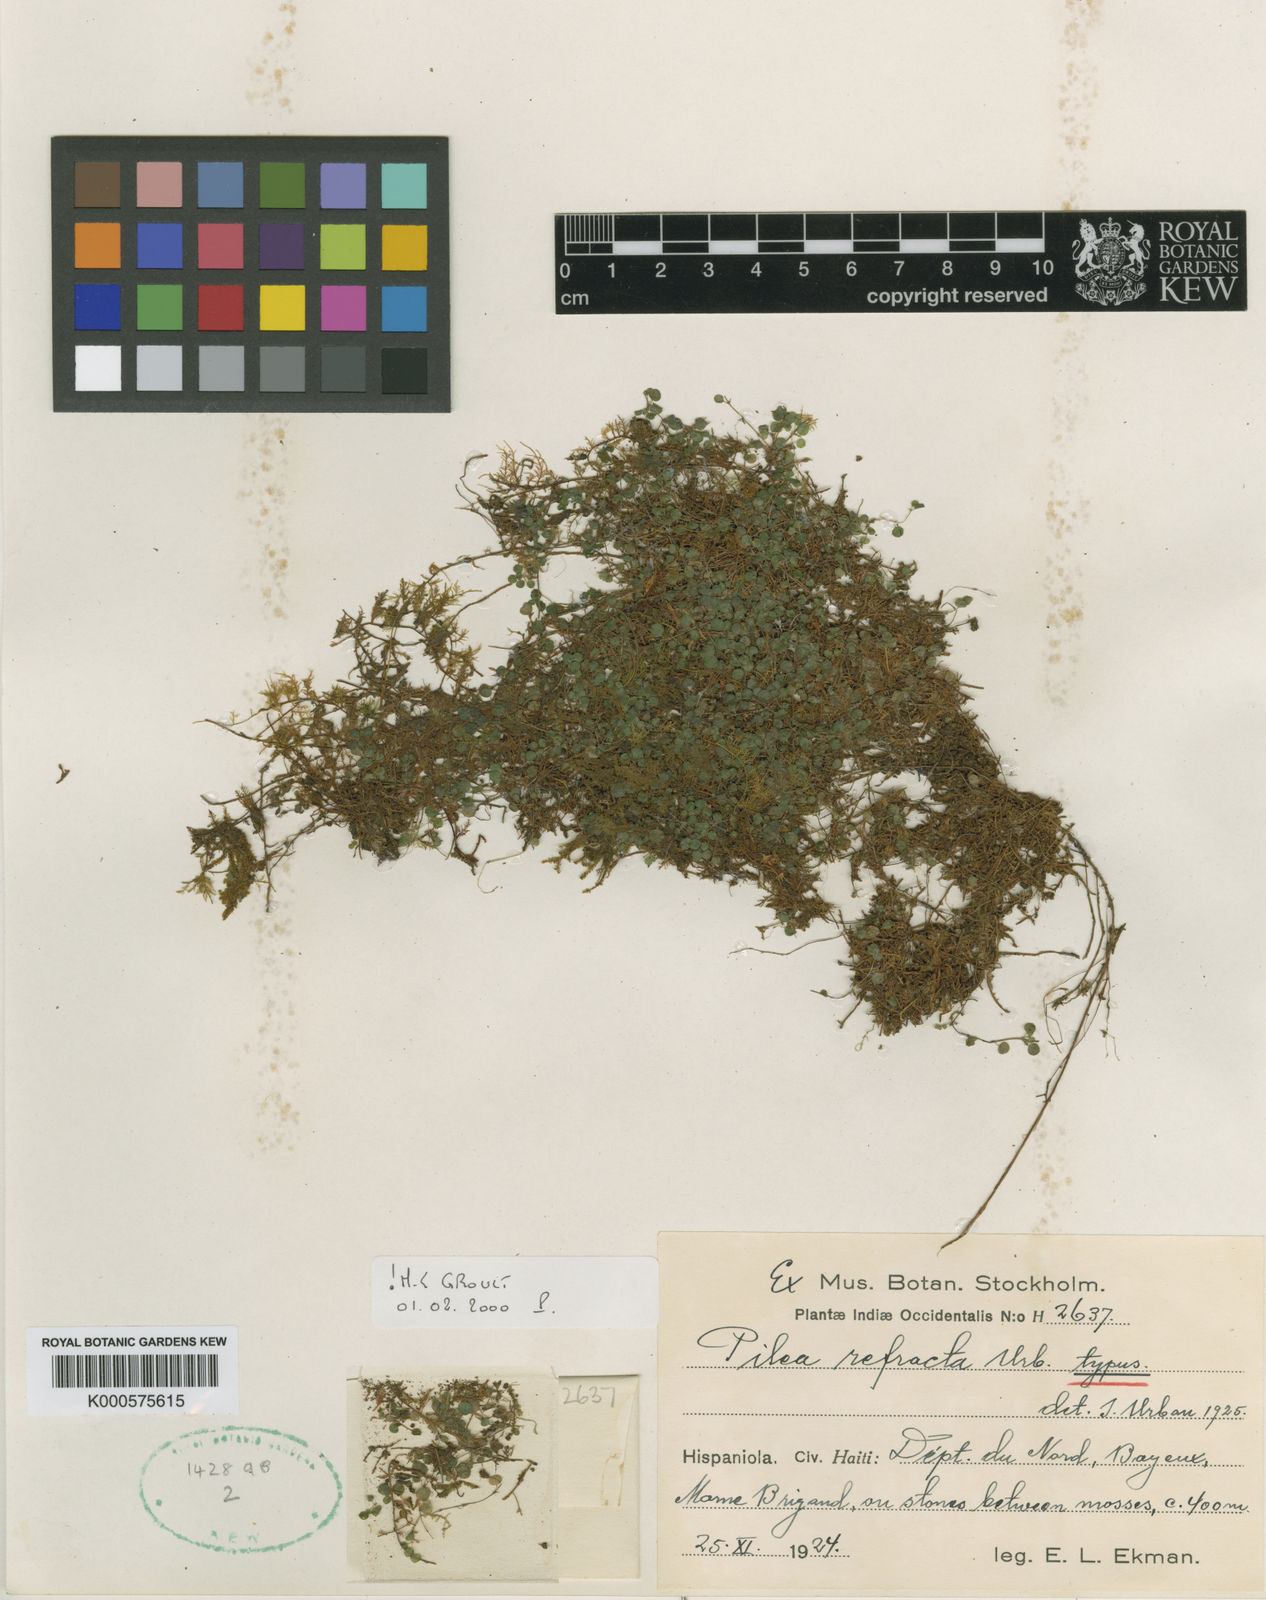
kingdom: Plantae
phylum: Tracheophyta
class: Magnoliopsida
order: Rosales
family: Urticaceae
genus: Pilea
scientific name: Pilea refracta
